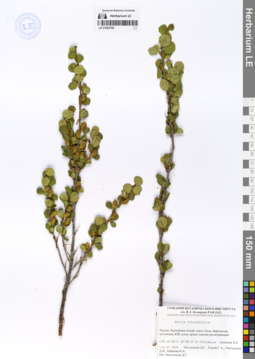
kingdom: Plantae
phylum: Tracheophyta
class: Magnoliopsida
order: Fagales
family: Betulaceae
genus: Betula
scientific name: Betula glandulosa
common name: Dwarf birch
